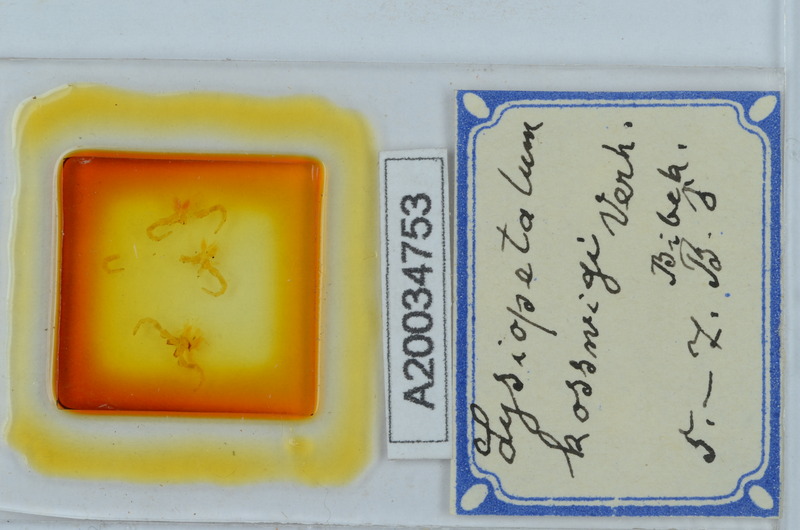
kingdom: Animalia
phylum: Arthropoda
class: Diplopoda
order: Callipodida
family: Schizopetalidae
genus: Acanthopetalum
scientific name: Acanthopetalum furculigerum
